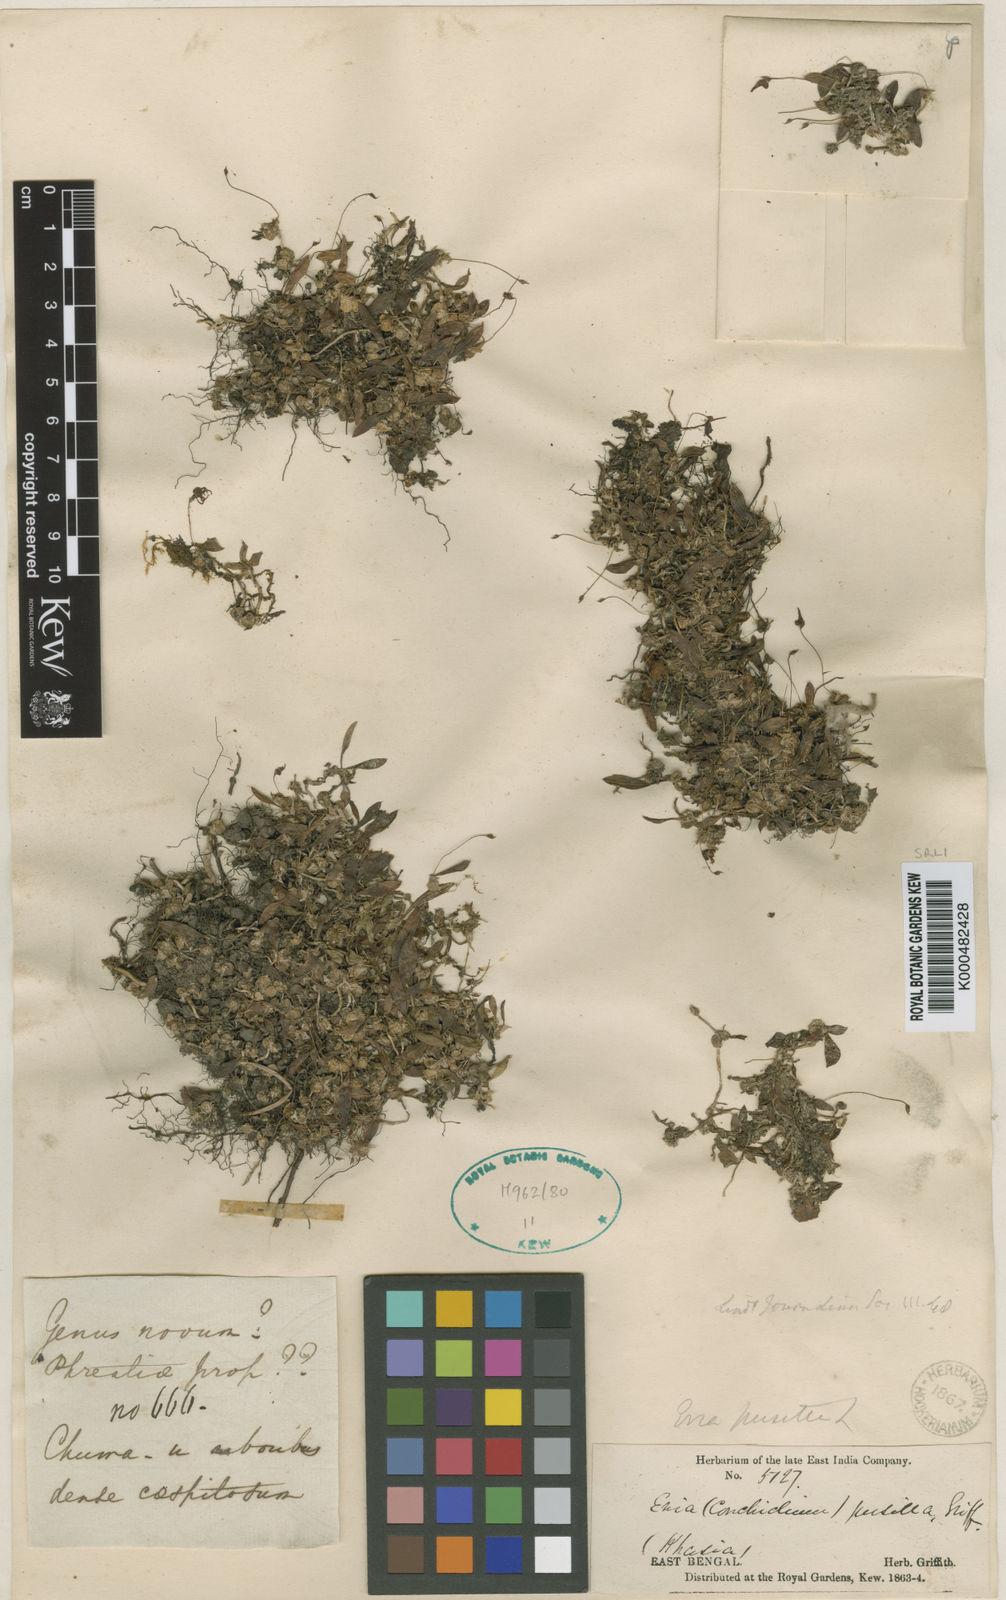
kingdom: Plantae
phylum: Tracheophyta
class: Liliopsida
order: Asparagales
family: Orchidaceae
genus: Porpax
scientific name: Porpax pusilla
